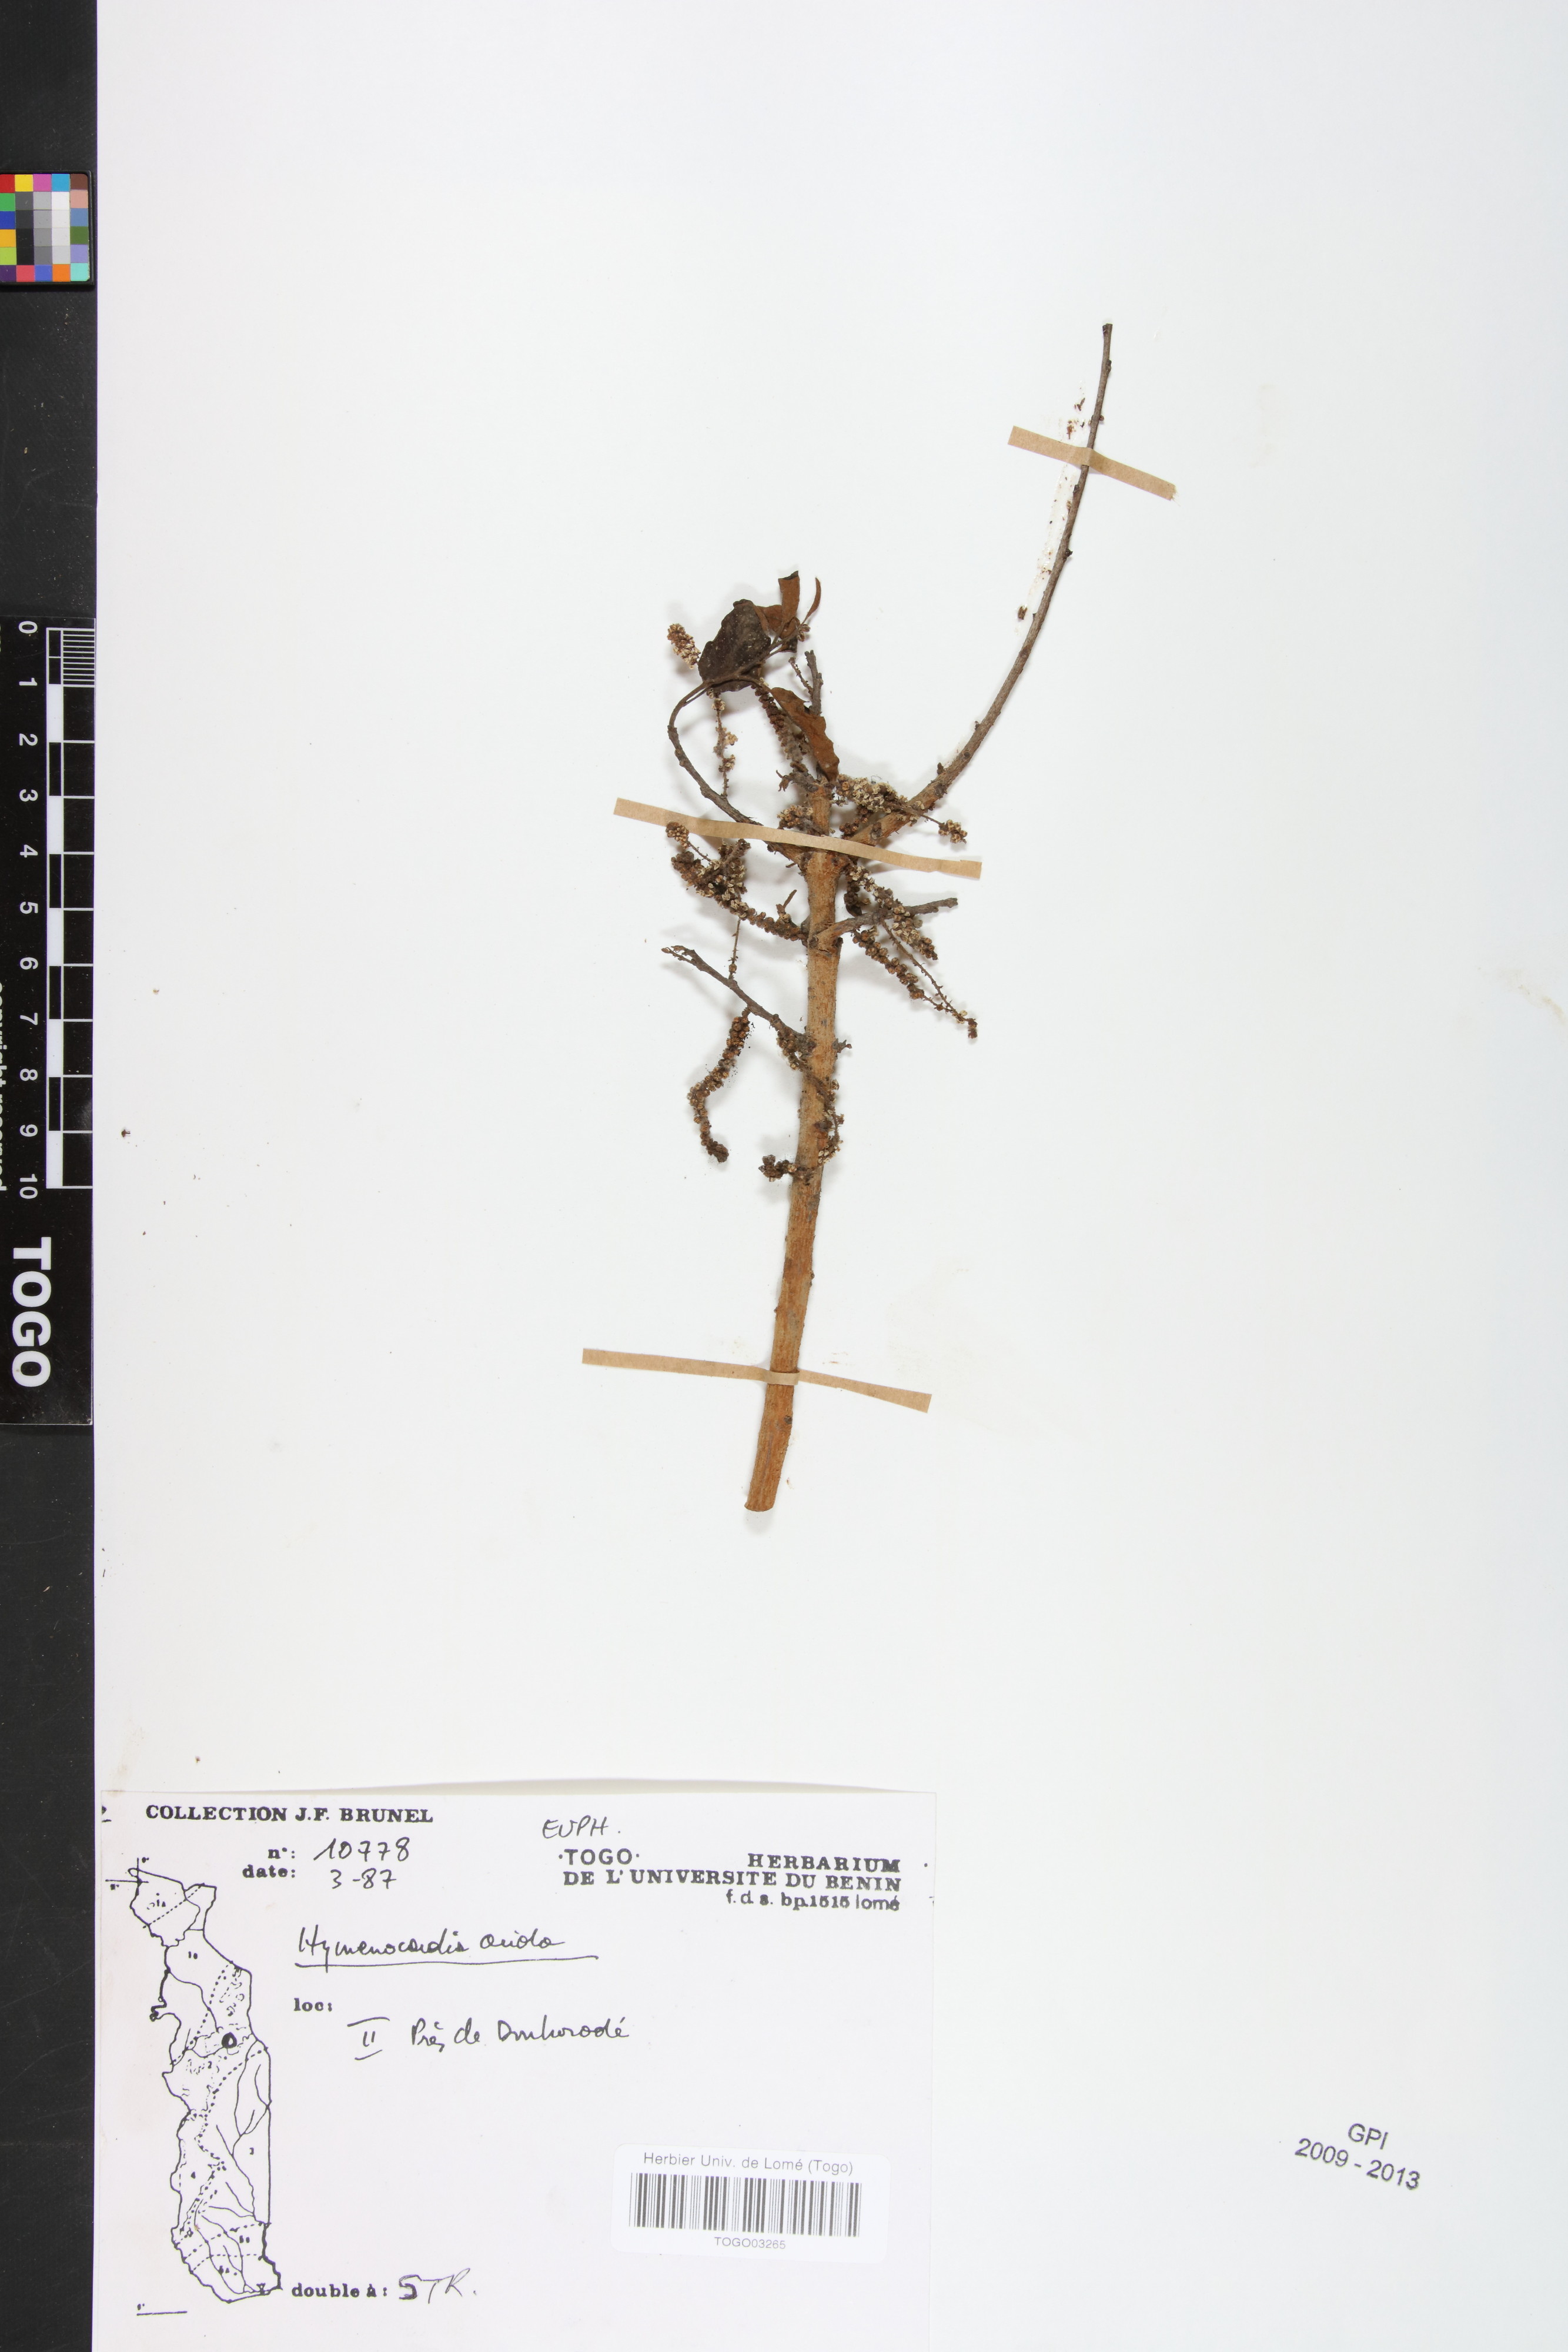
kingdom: Plantae
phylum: Tracheophyta
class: Magnoliopsida
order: Malpighiales
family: Phyllanthaceae
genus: Hymenocardia
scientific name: Hymenocardia acida
